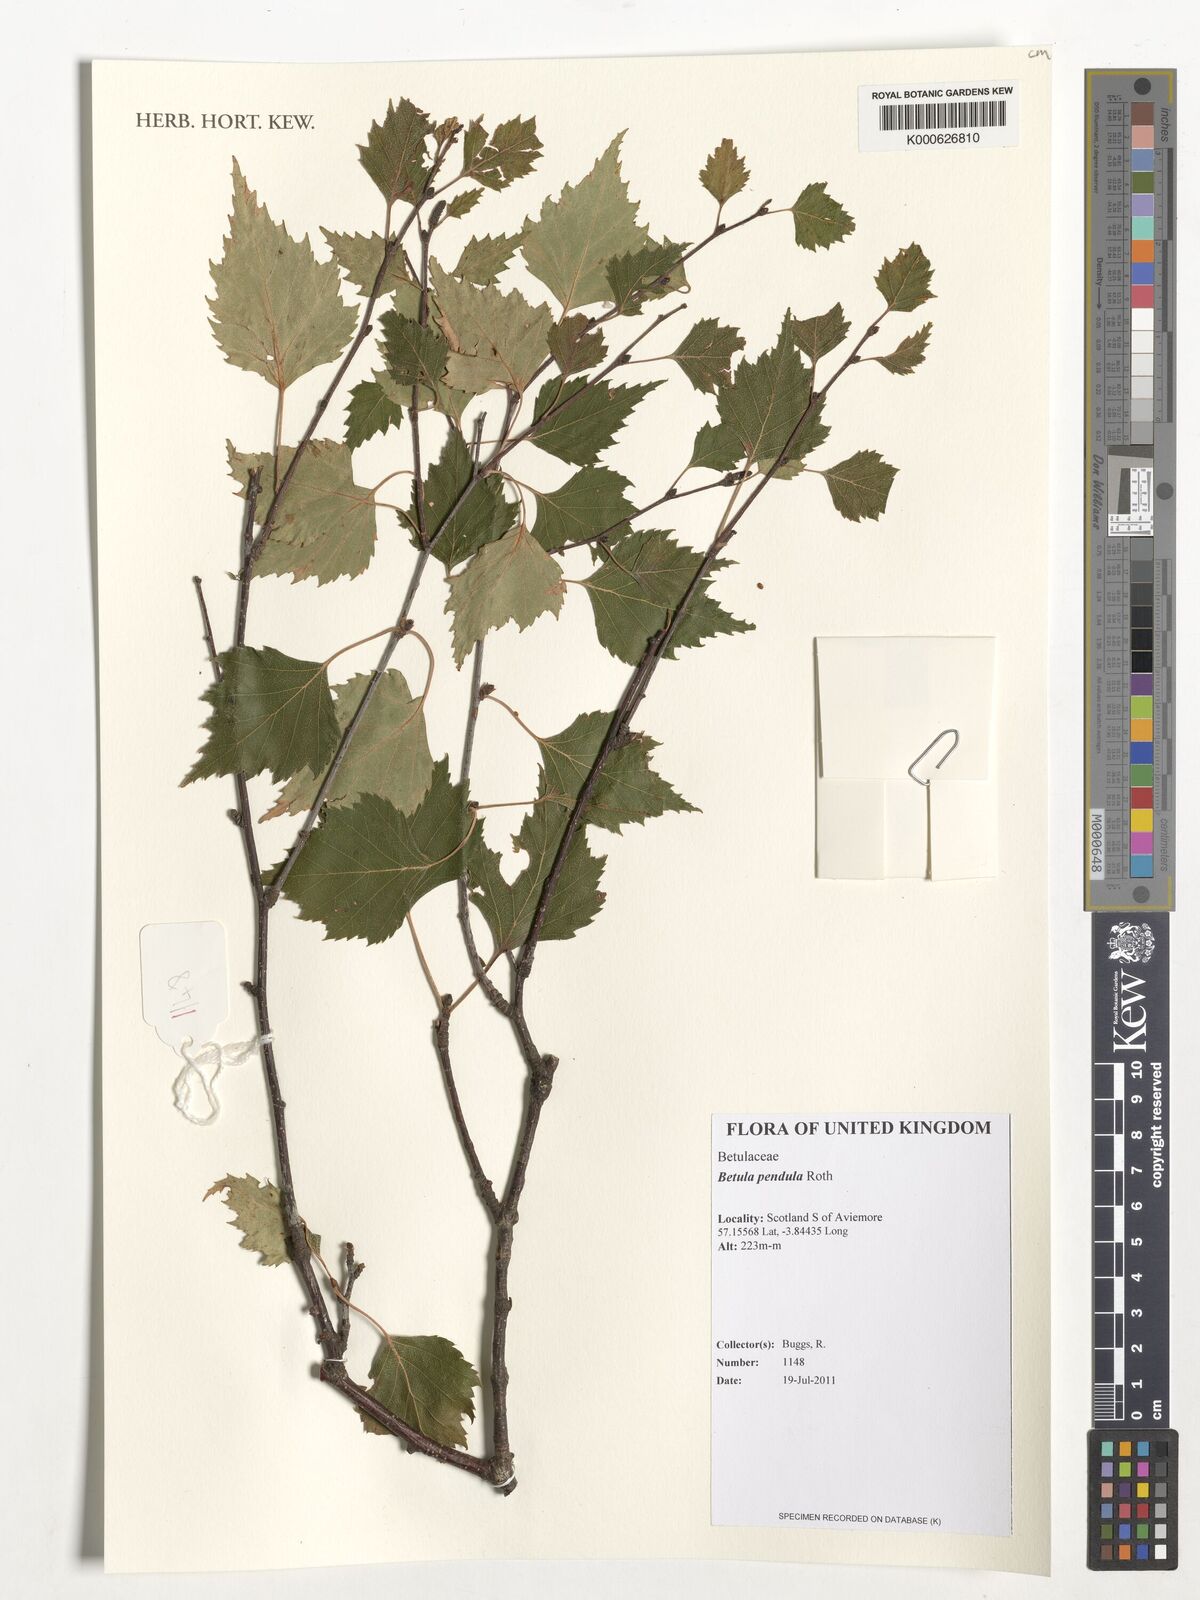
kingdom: Plantae
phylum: Tracheophyta
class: Magnoliopsida
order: Fagales
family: Betulaceae
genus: Betula
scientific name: Betula pendula
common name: Silver birch
